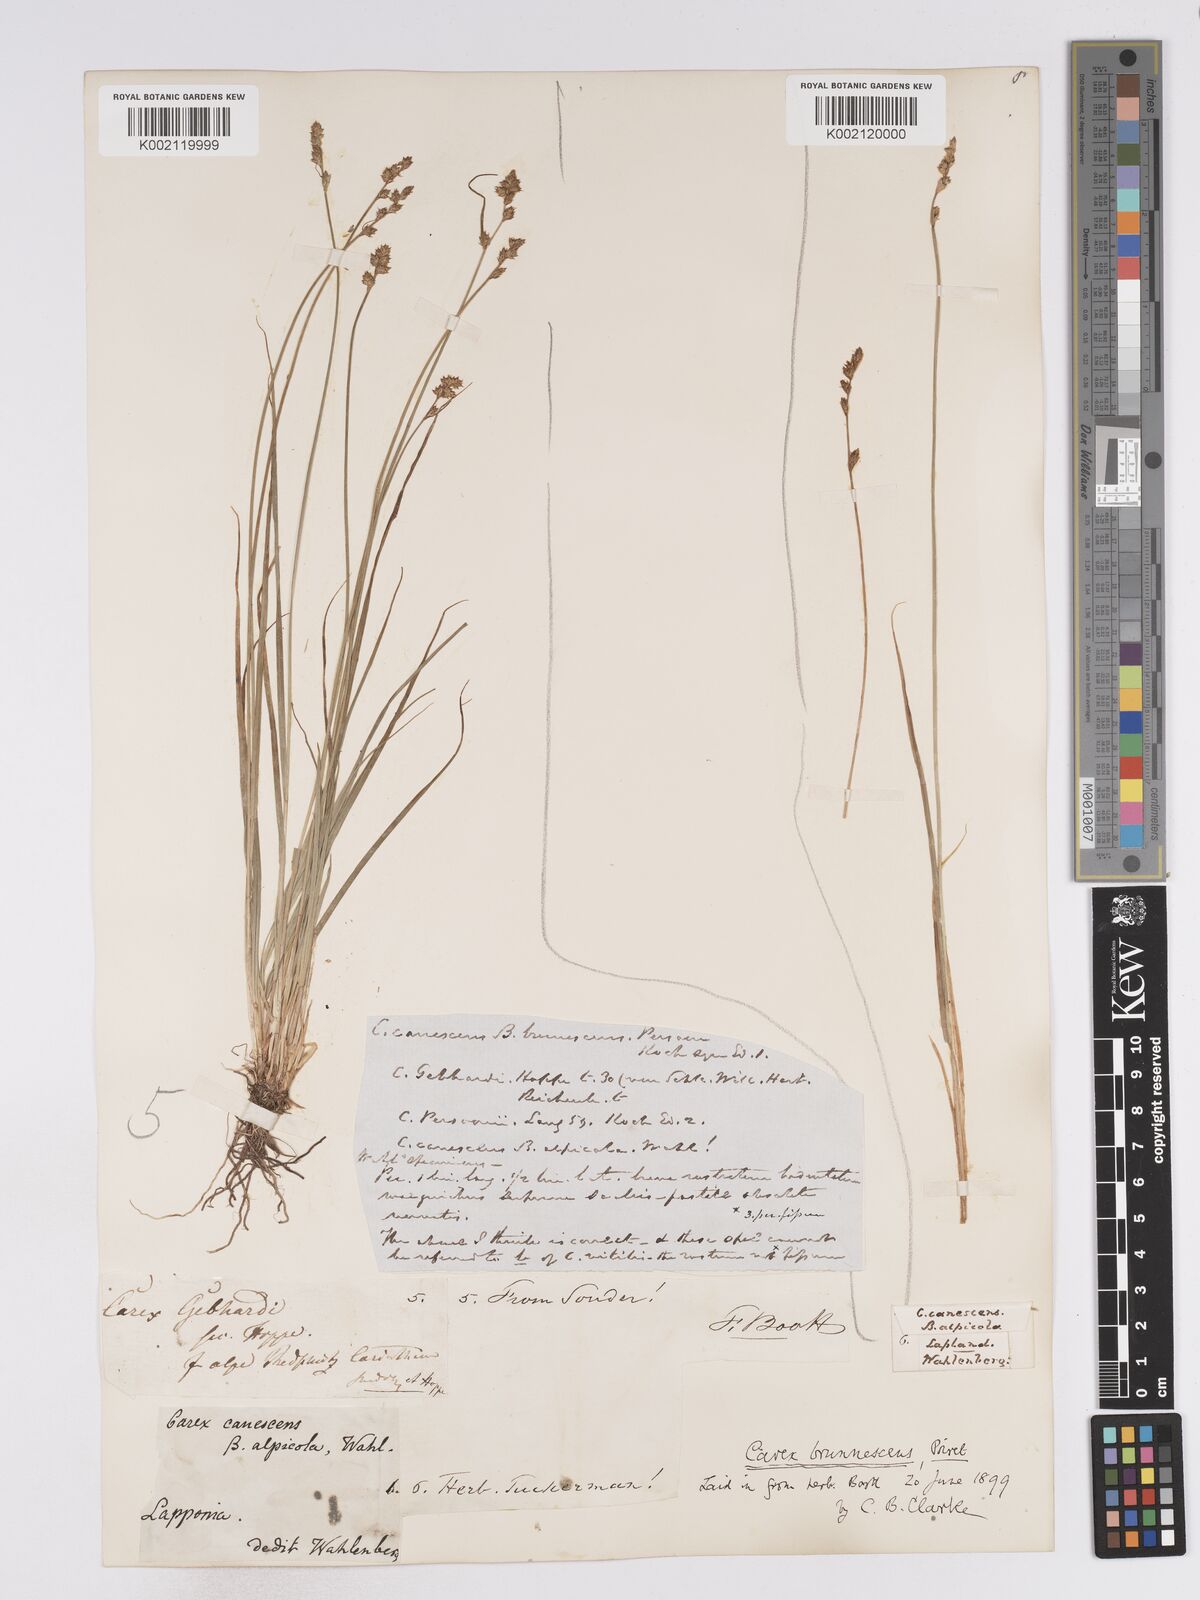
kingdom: Plantae
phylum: Tracheophyta
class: Liliopsida
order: Poales
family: Cyperaceae
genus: Carex
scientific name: Carex brunnescens
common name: Brown sedge
